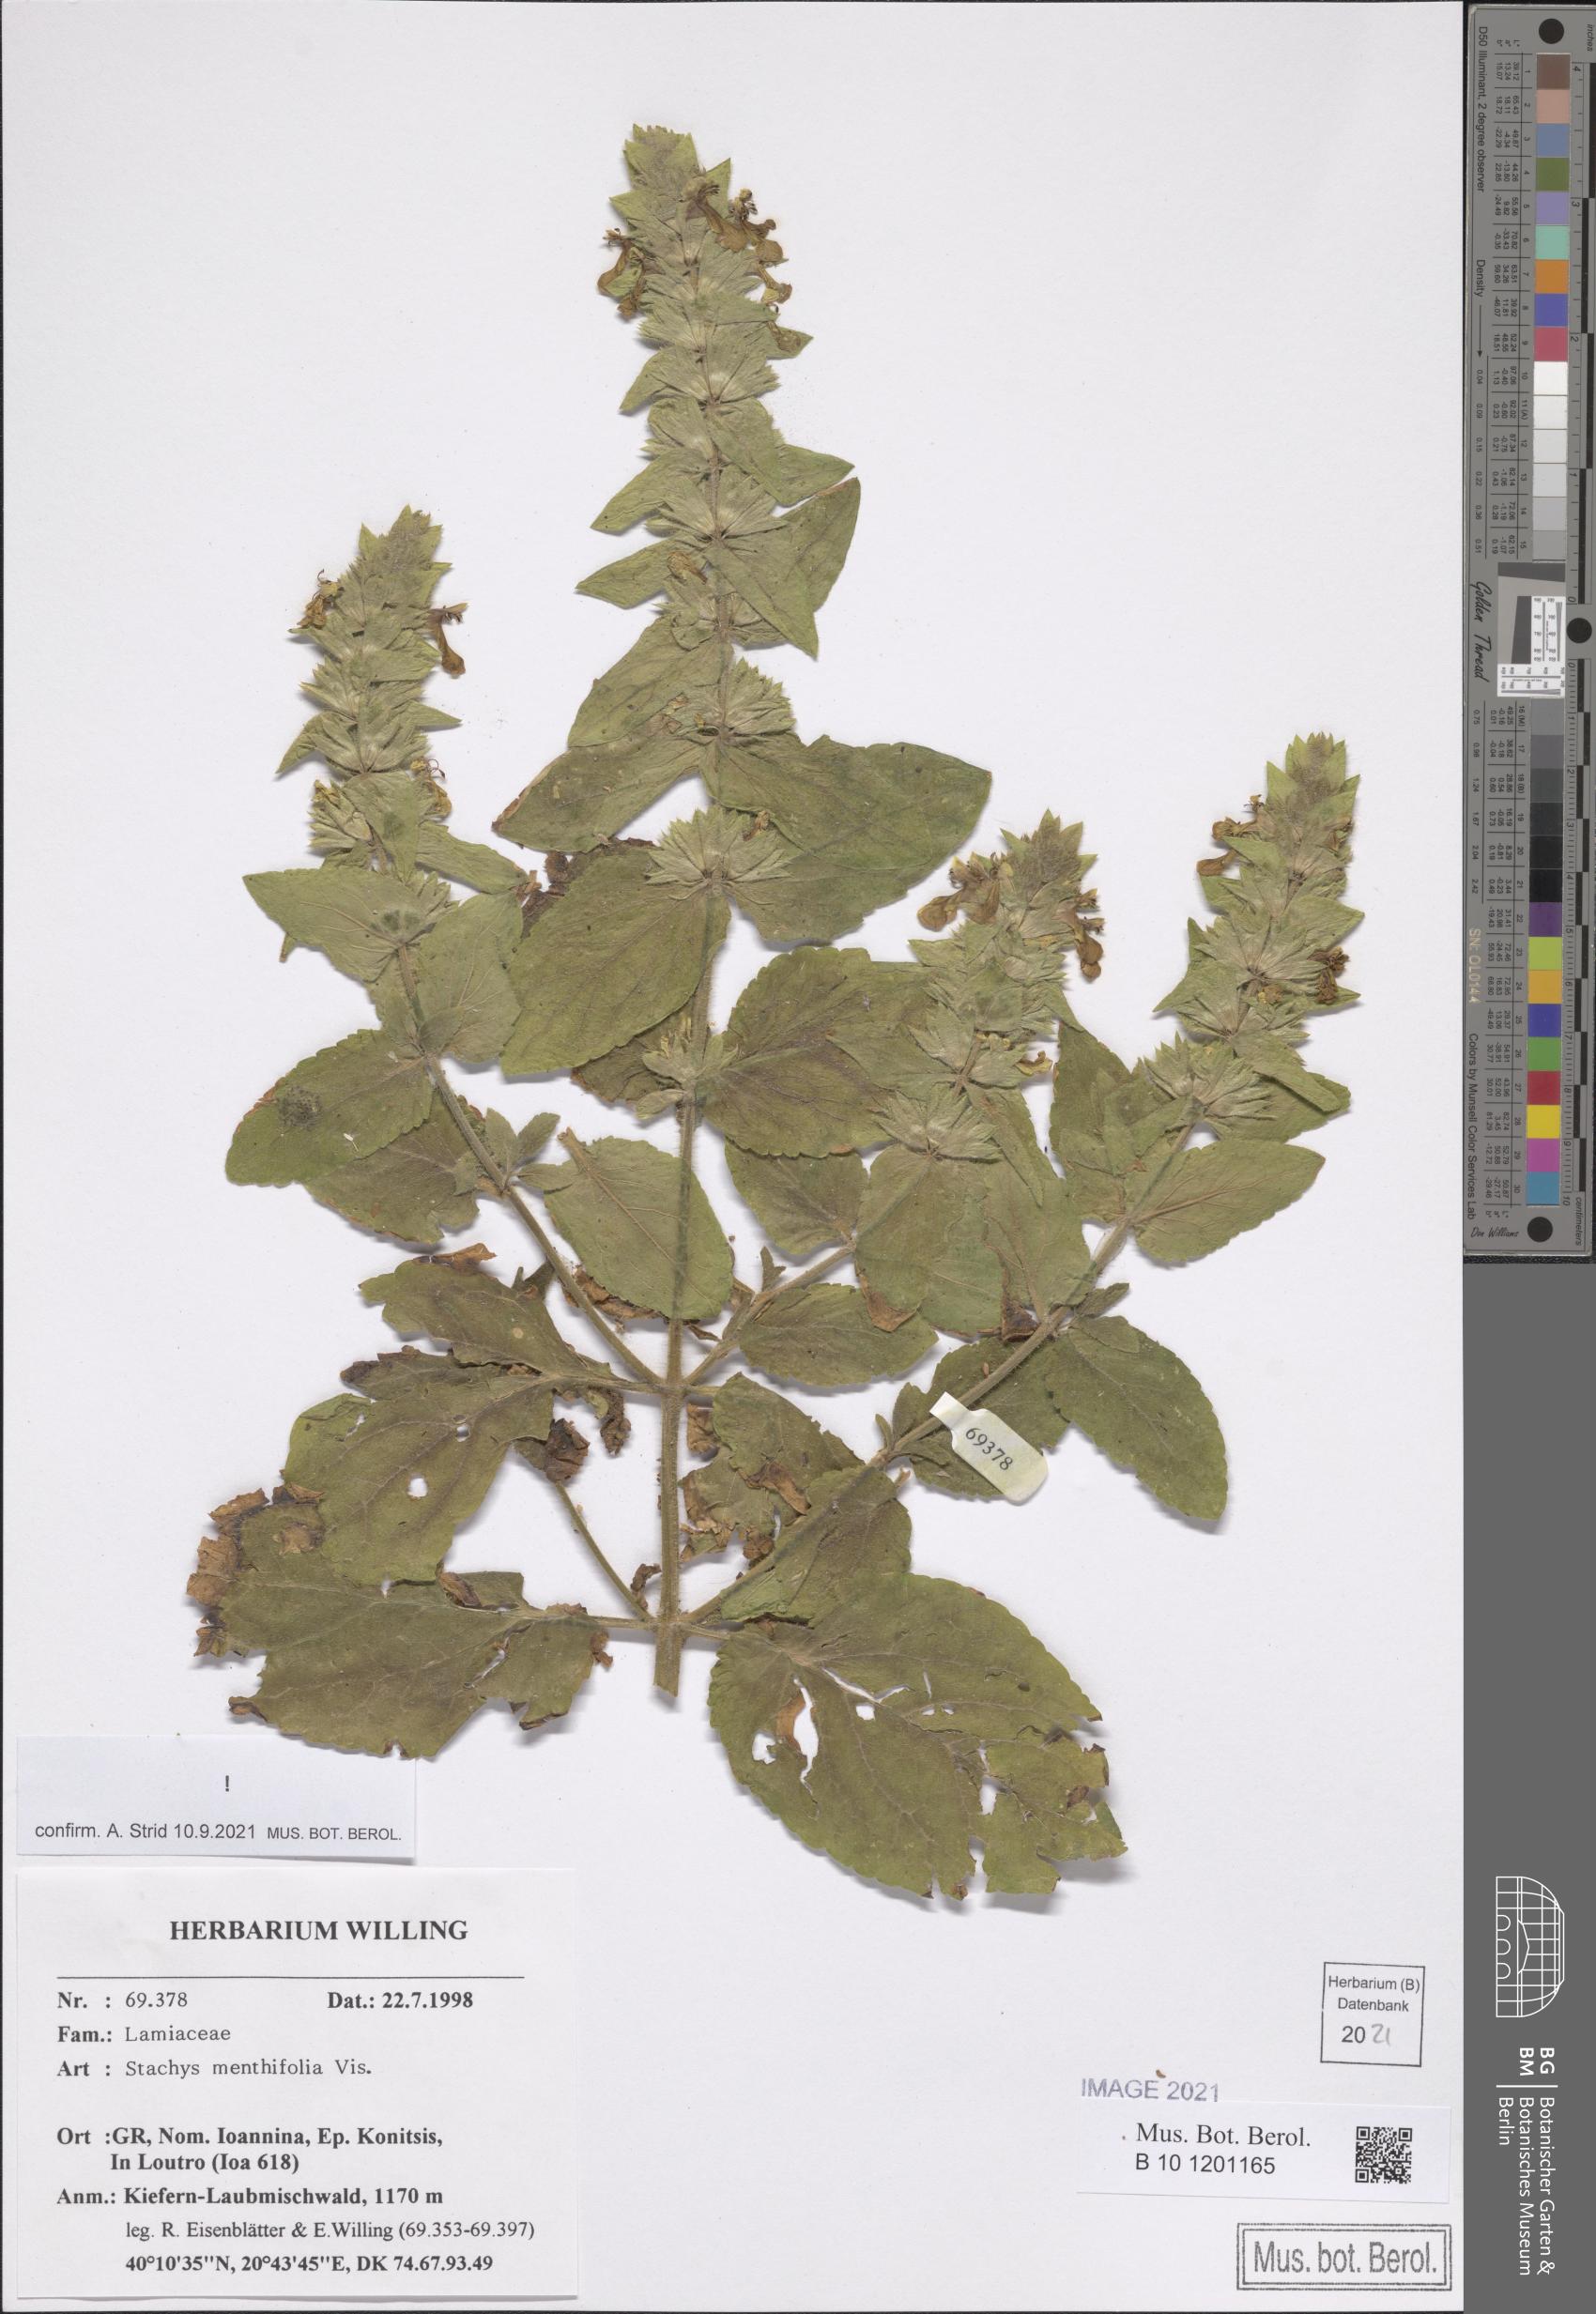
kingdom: Plantae
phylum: Tracheophyta
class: Magnoliopsida
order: Lamiales
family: Lamiaceae
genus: Stachys
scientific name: Stachys menthifolia
